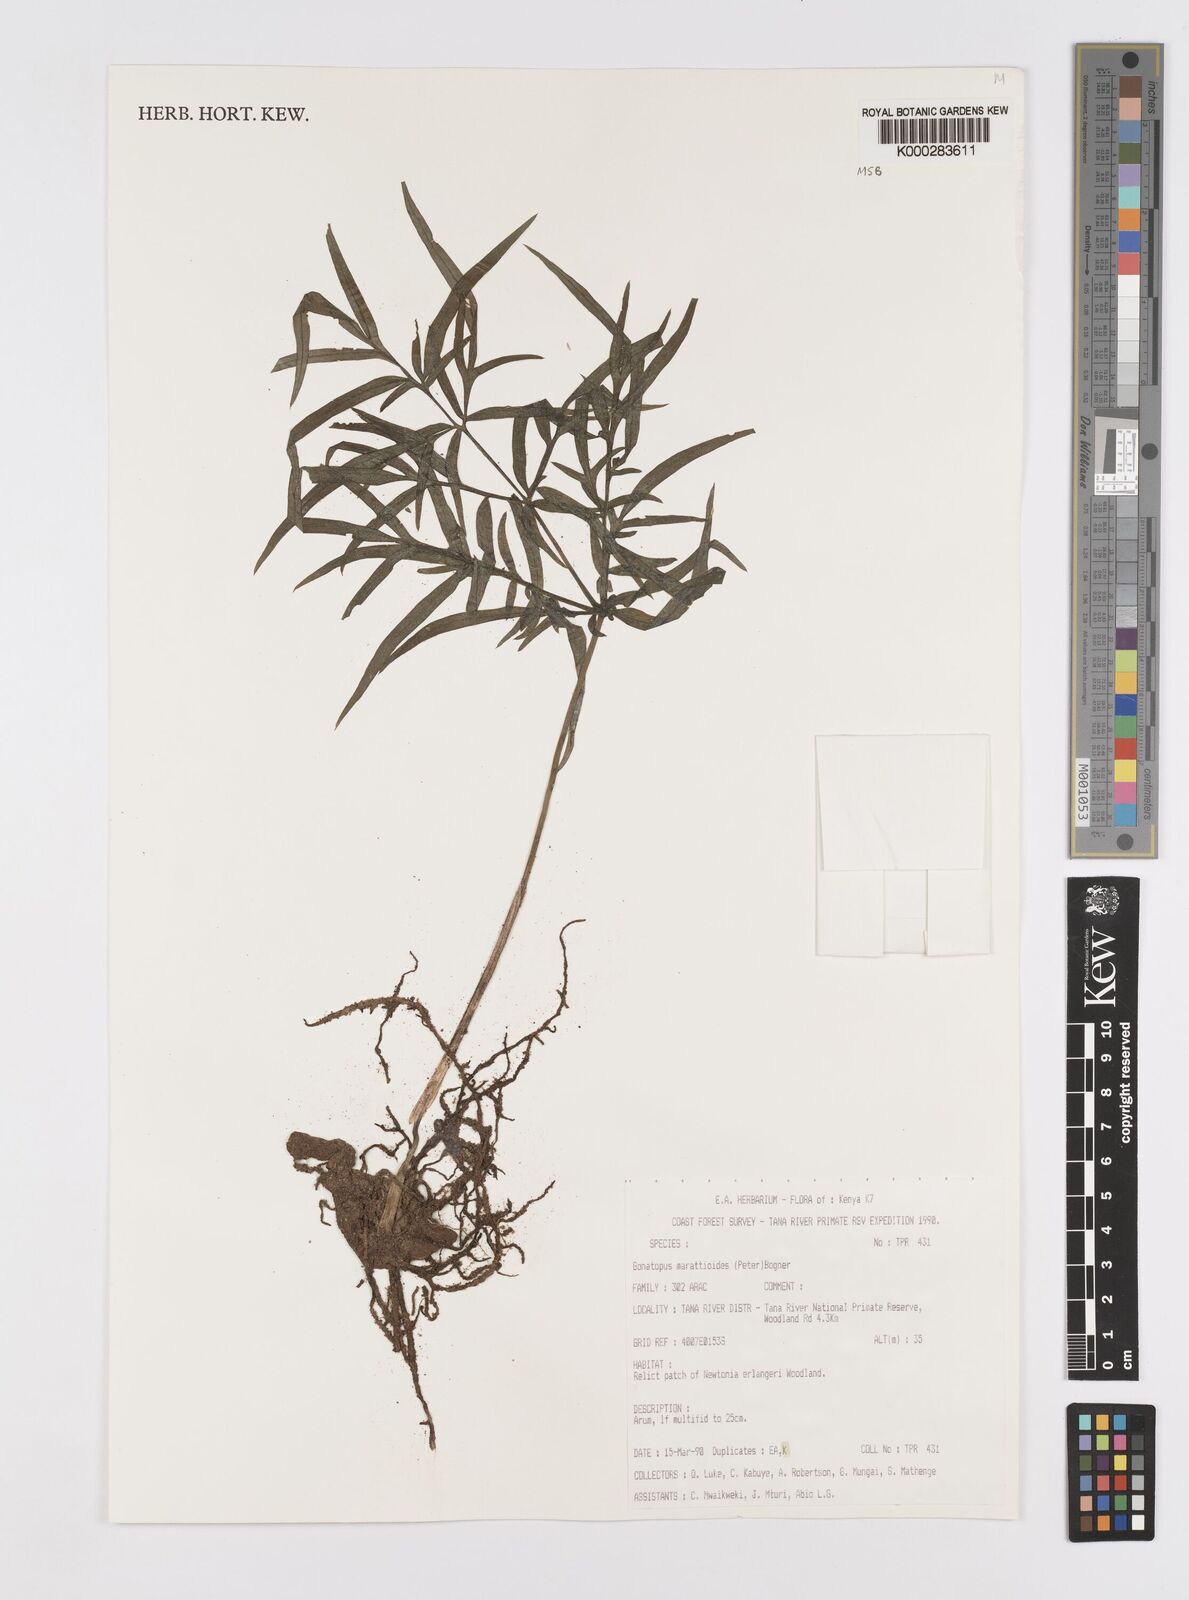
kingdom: Plantae
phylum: Tracheophyta
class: Liliopsida
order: Alismatales
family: Araceae
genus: Gonatopus
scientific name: Gonatopus marattioides
